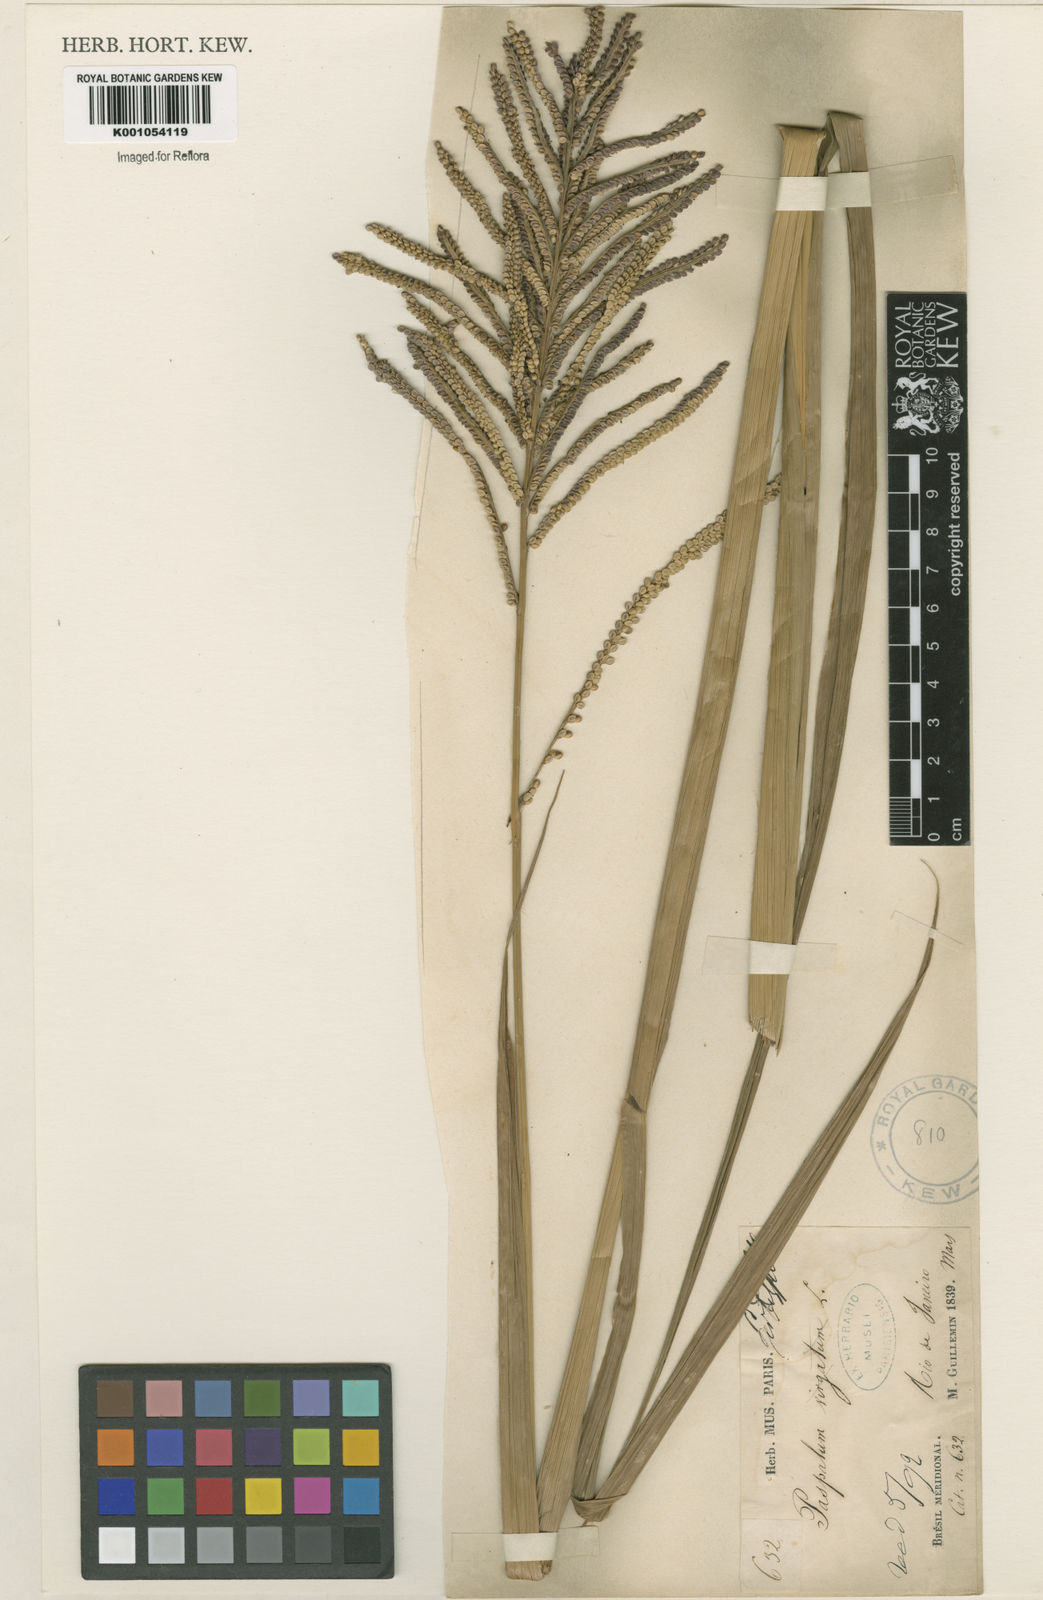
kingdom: Plantae
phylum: Tracheophyta
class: Liliopsida
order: Poales
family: Poaceae
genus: Paspalum
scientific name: Paspalum
